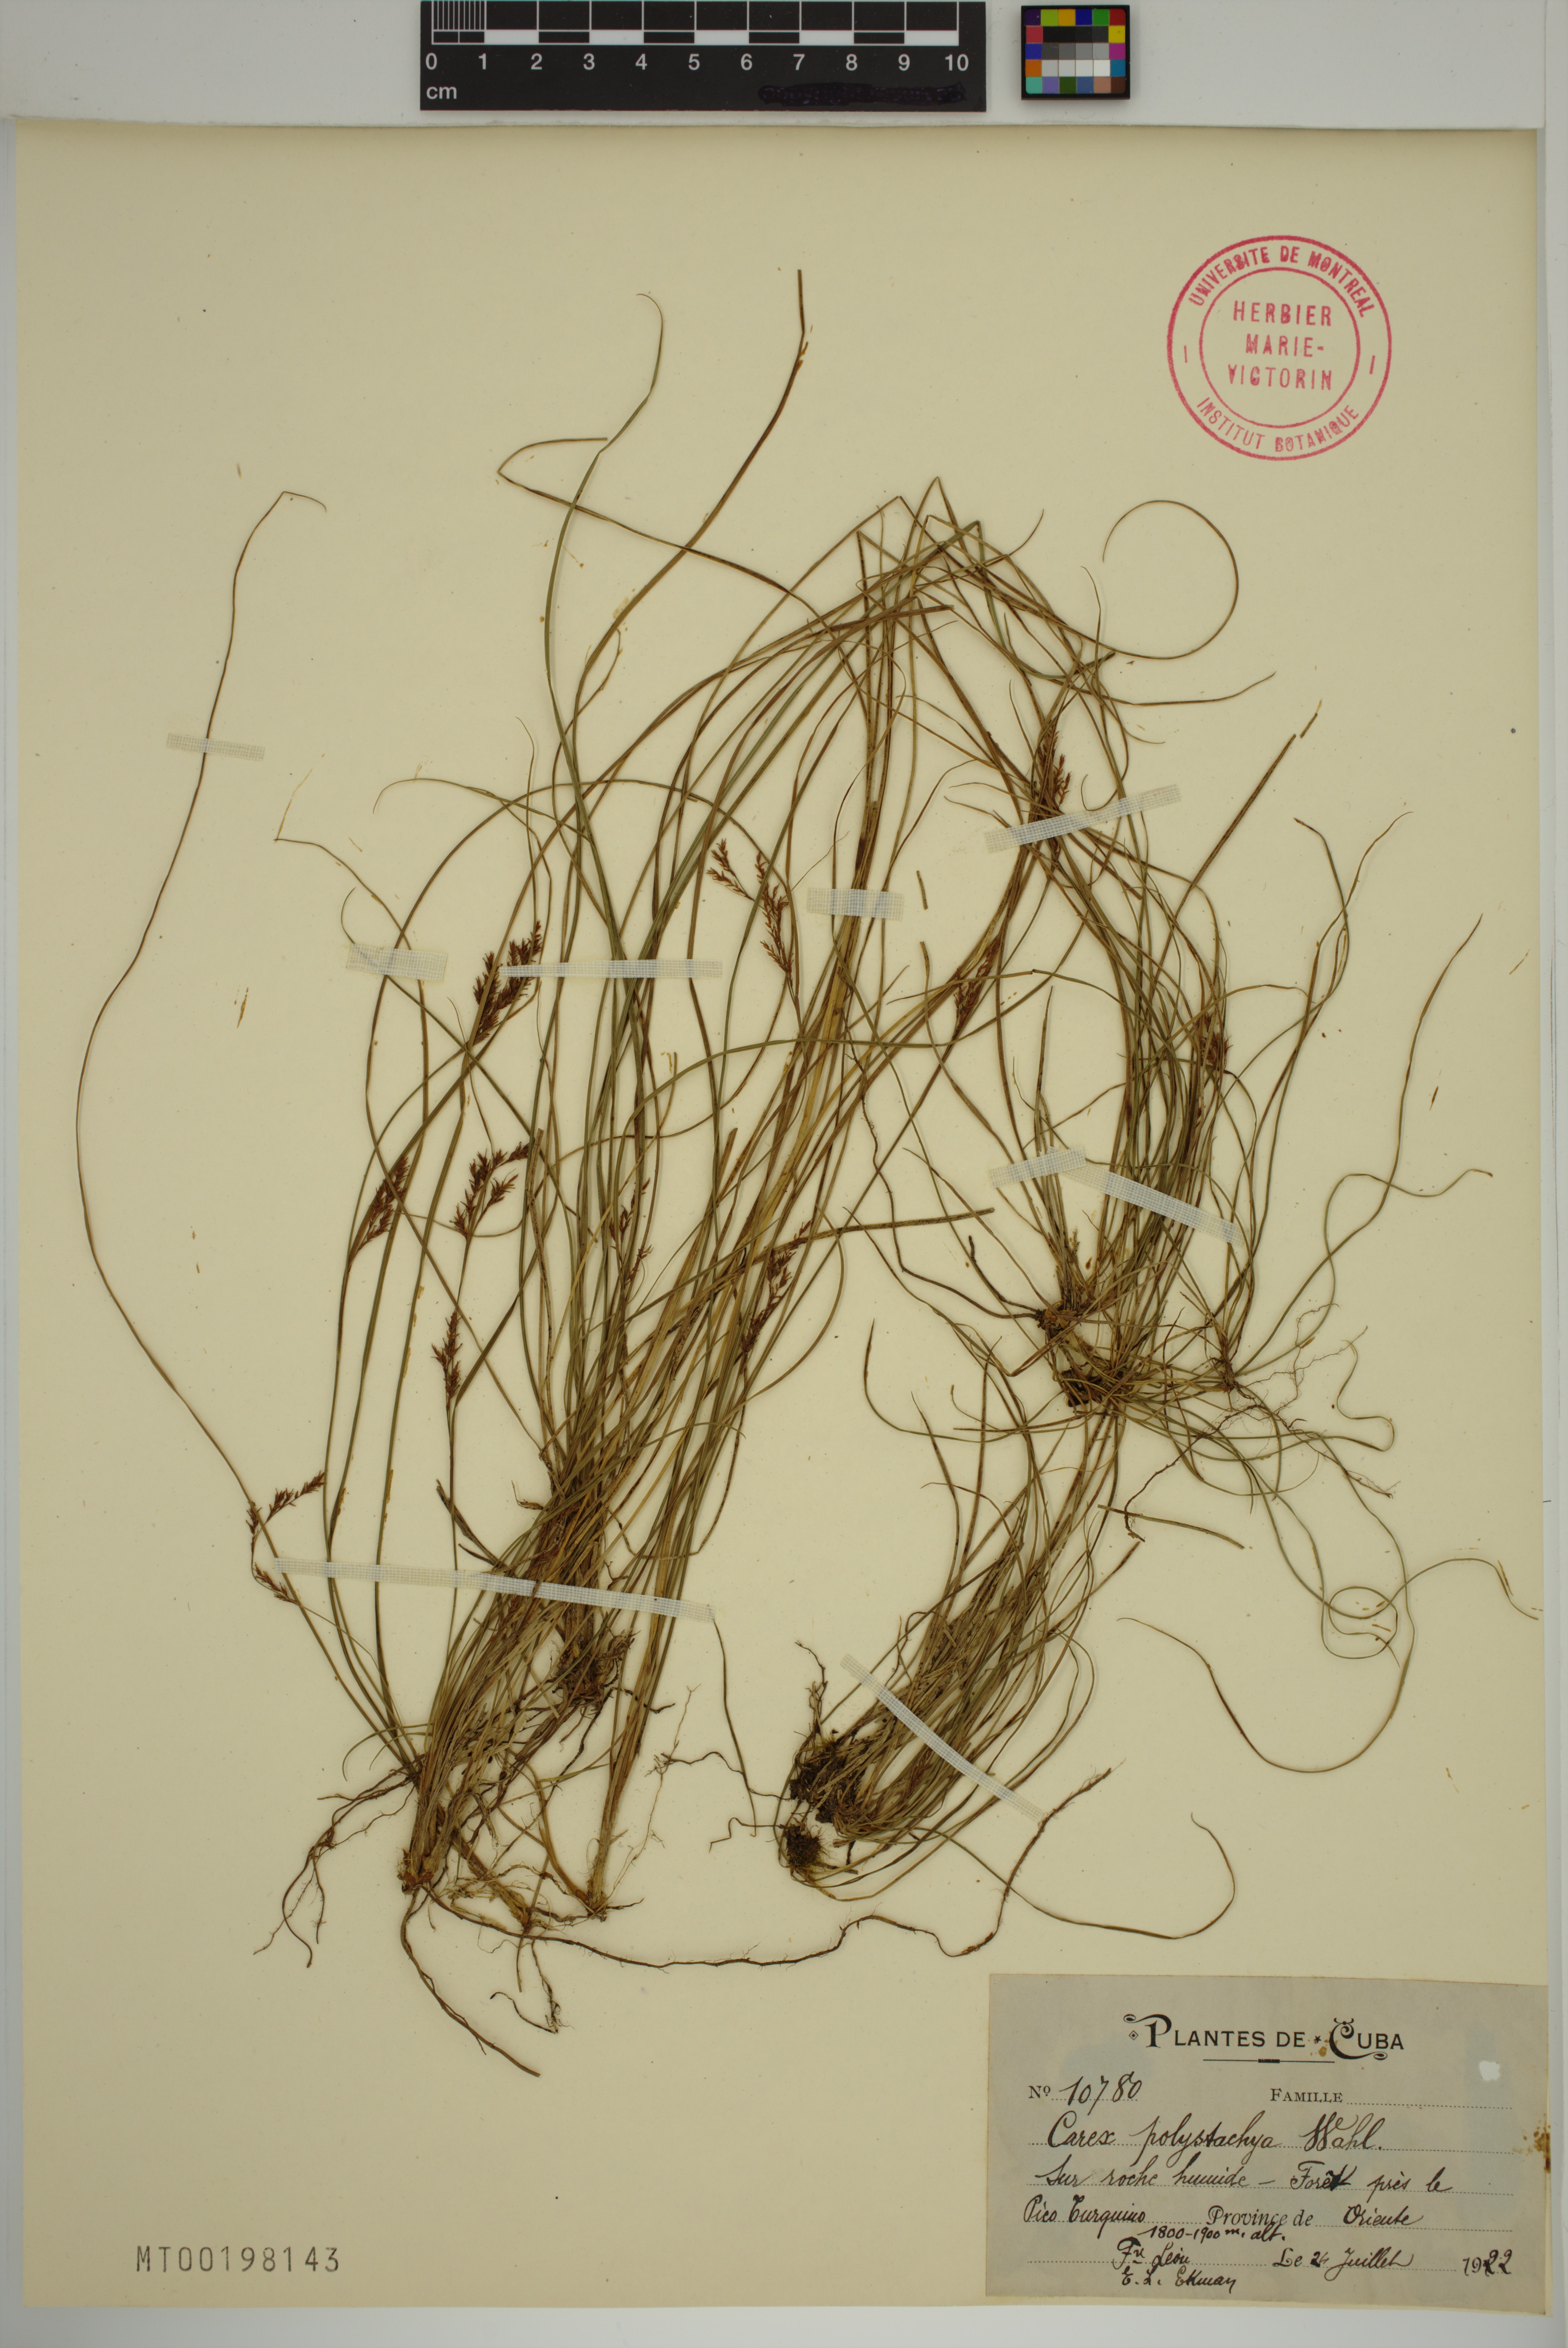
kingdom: Plantae
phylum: Tracheophyta
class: Liliopsida
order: Poales
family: Cyperaceae
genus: Carex
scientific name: Carex polystachya
